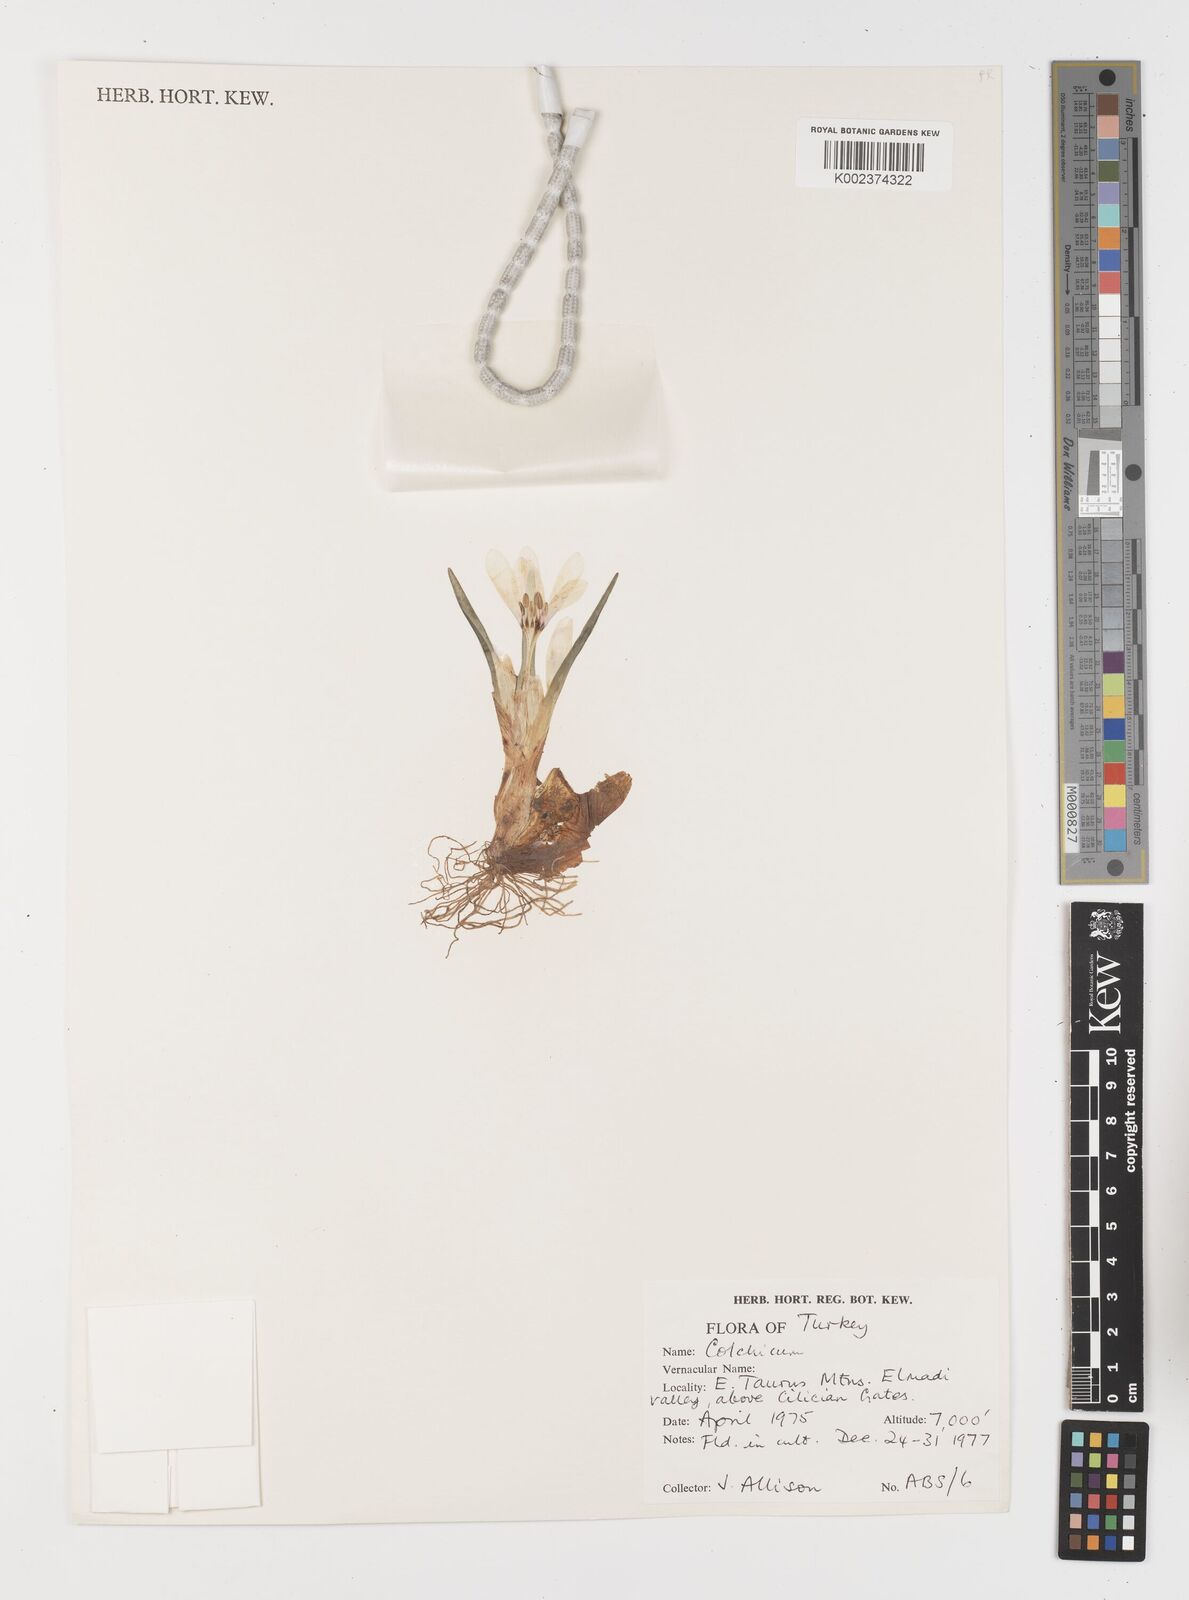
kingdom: Plantae
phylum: Tracheophyta
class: Liliopsida
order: Liliales
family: Colchicaceae
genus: Colchicum
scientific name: Colchicum
